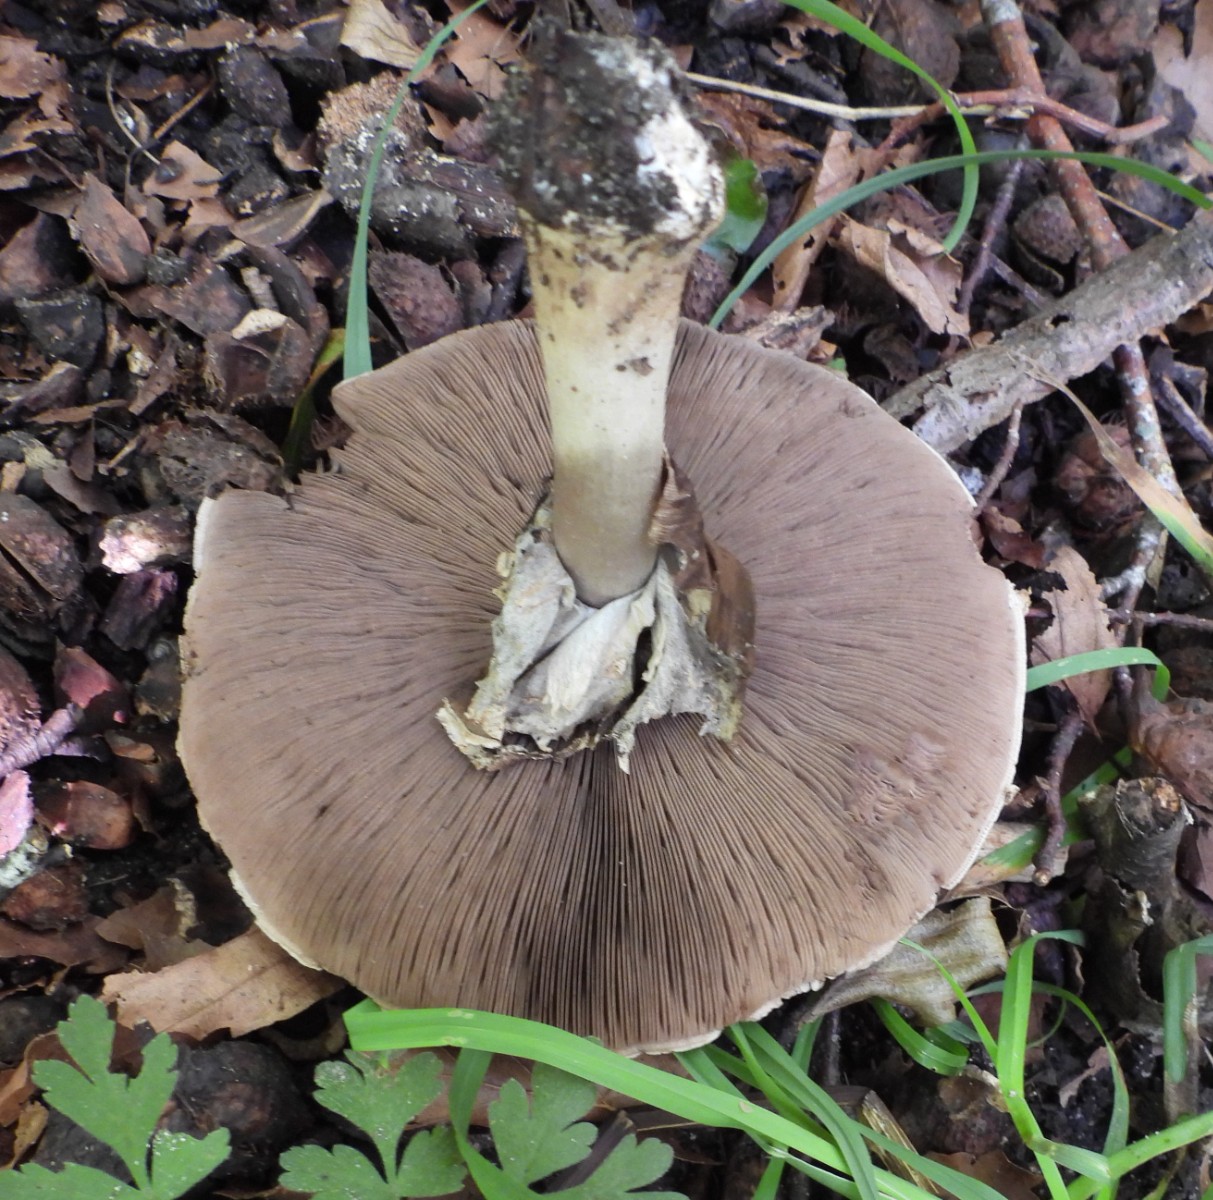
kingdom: Fungi
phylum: Basidiomycota
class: Agaricomycetes
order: Agaricales
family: Agaricaceae
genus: Agaricus
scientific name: Agaricus moelleri
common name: perlehøne-champignon
